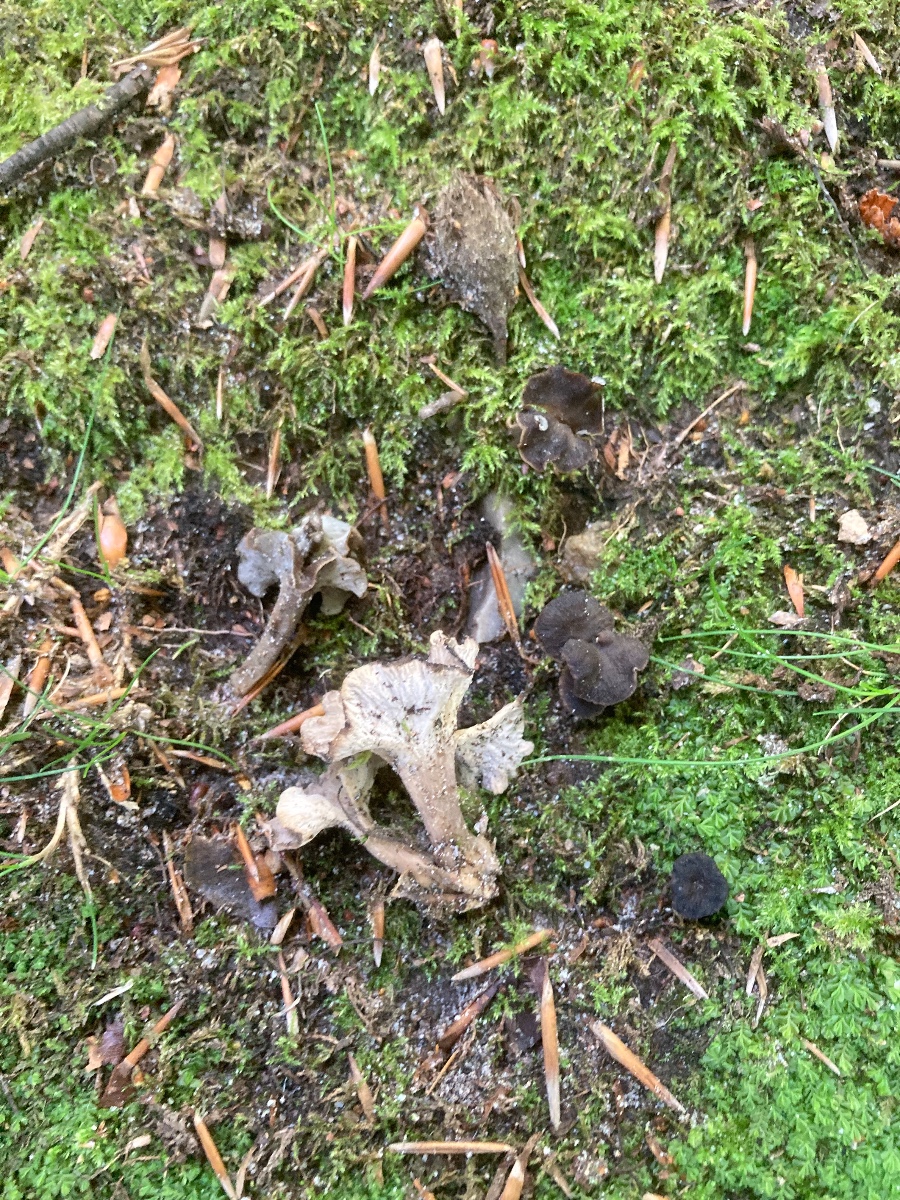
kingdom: Fungi
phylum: Basidiomycota
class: Agaricomycetes
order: Cantharellales
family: Hydnaceae
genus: Craterellus
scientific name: Craterellus undulatus
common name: liden kantarel
